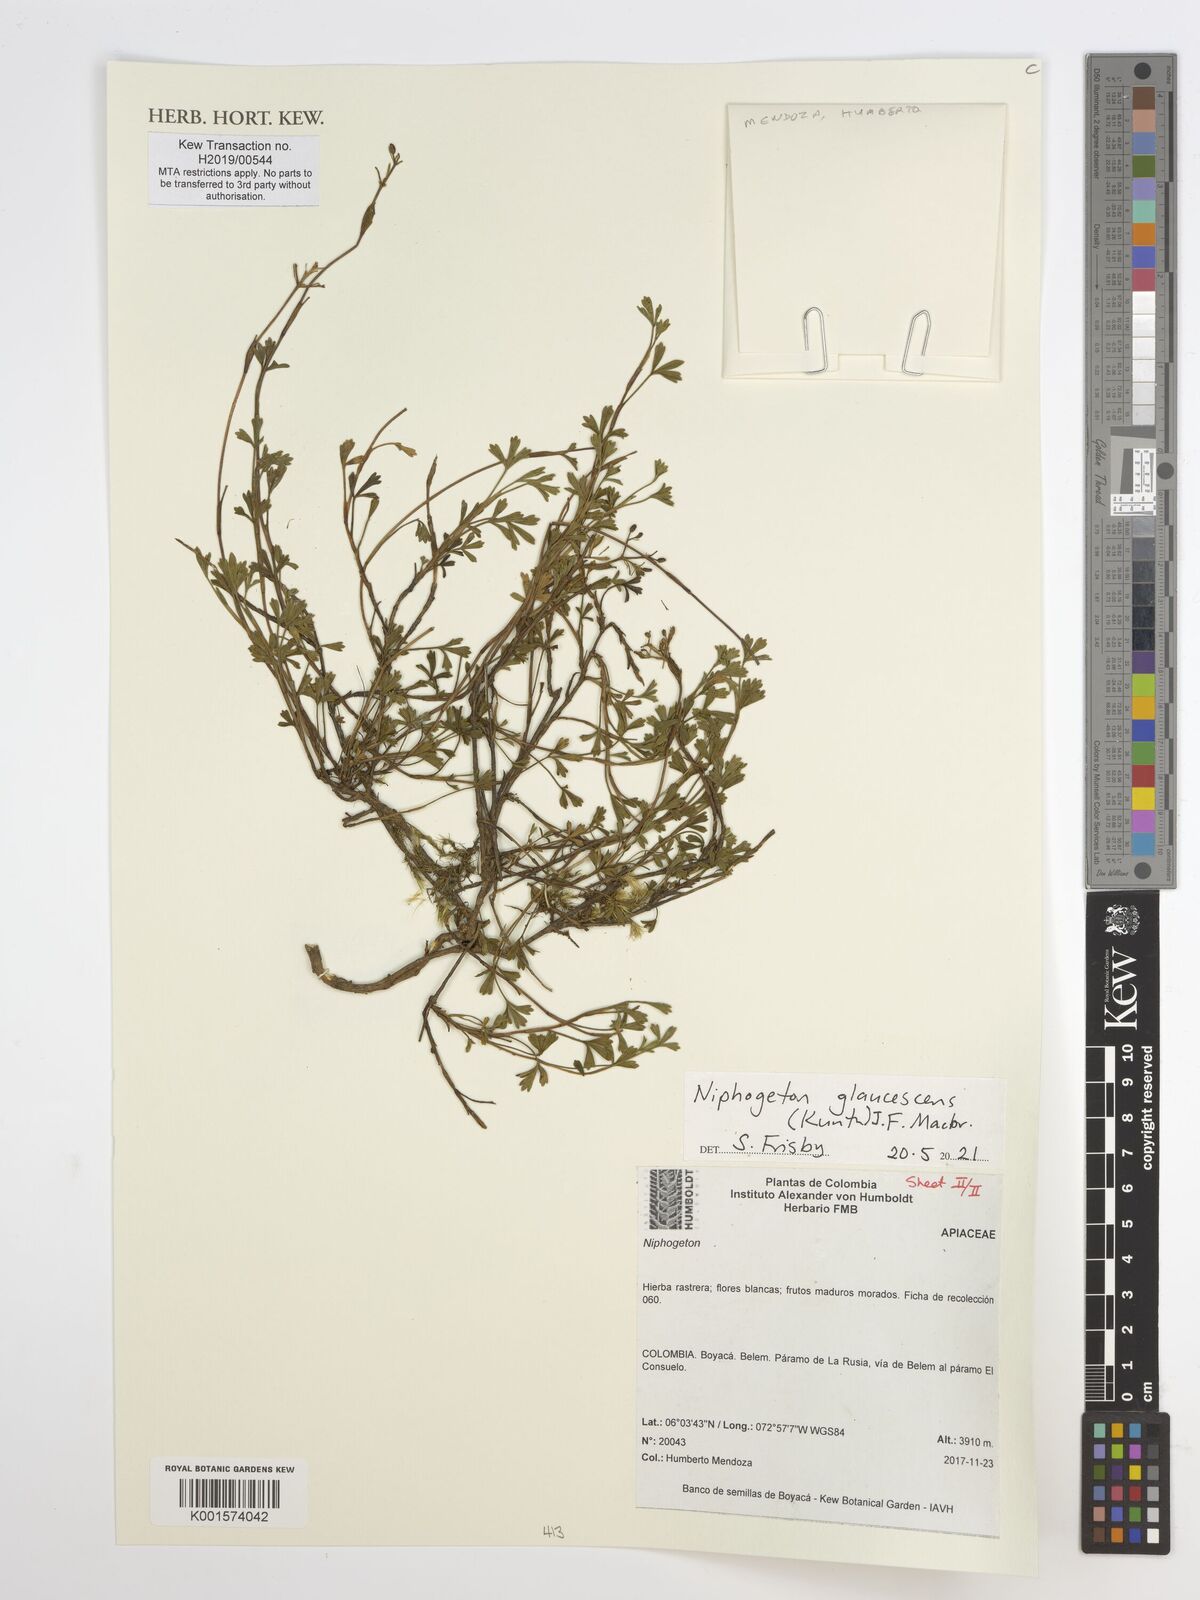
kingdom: Plantae
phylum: Tracheophyta
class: Magnoliopsida
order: Apiales
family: Apiaceae
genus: Niphogeton
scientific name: Niphogeton glaucescens
